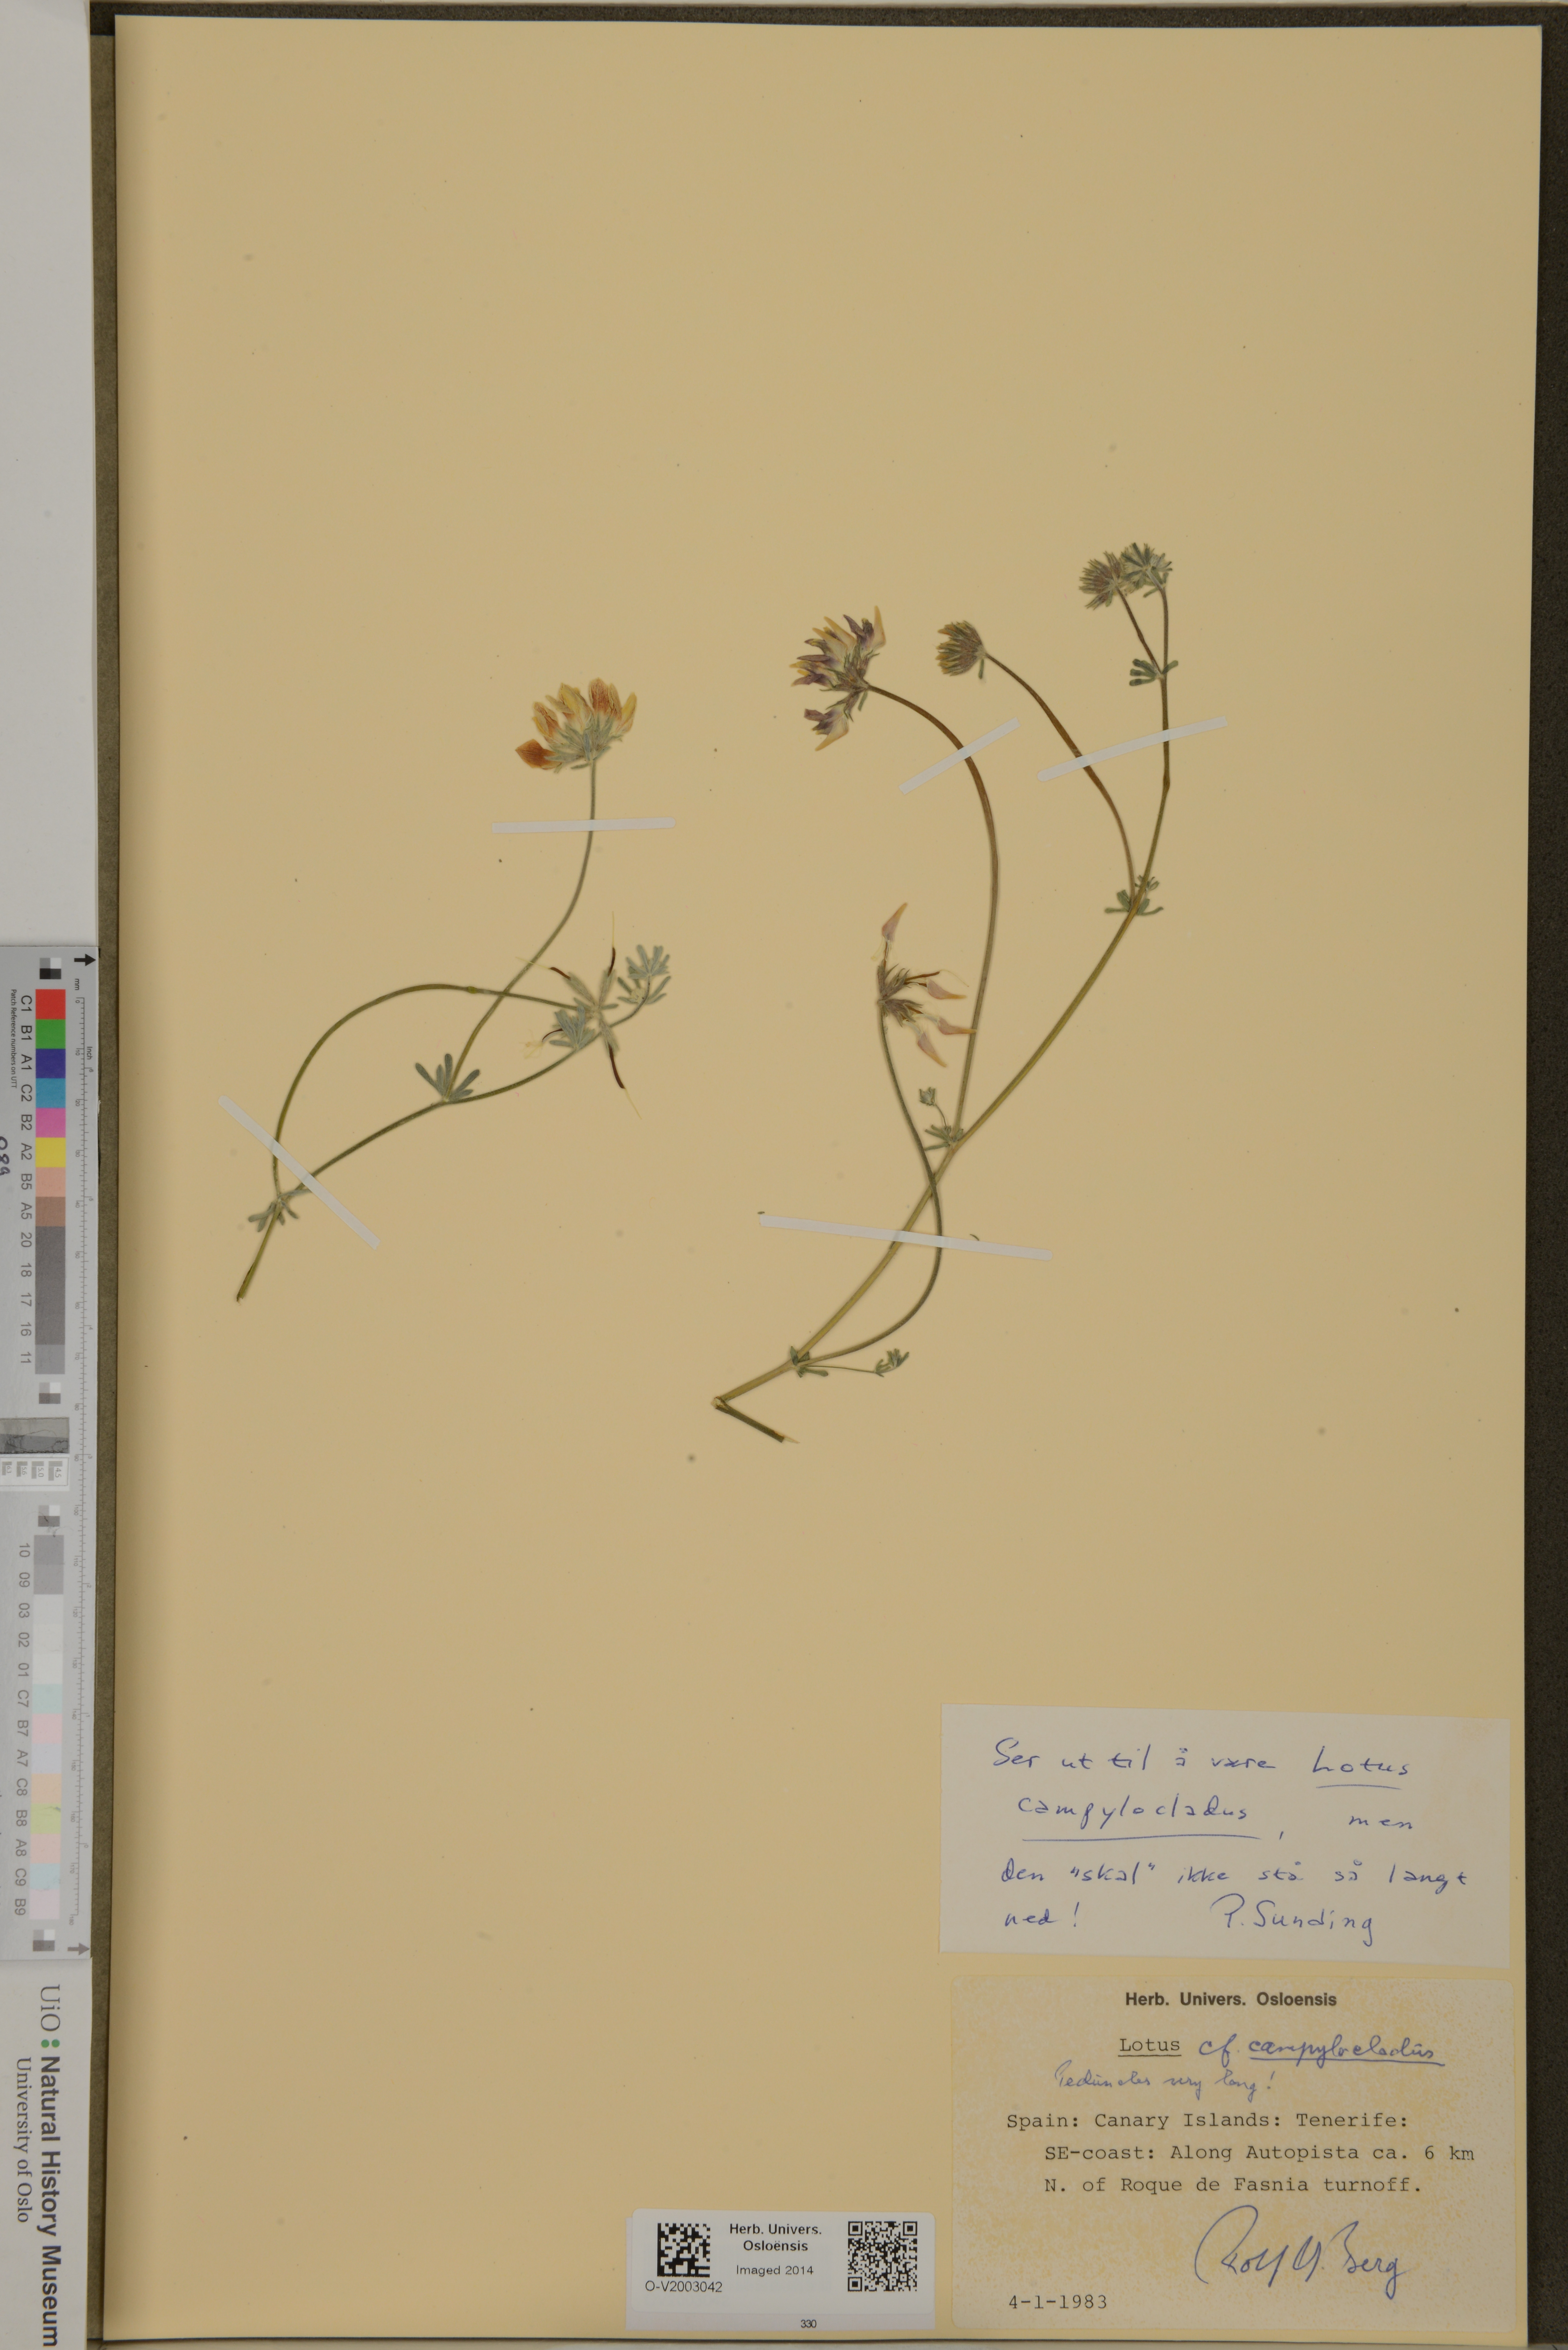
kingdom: Plantae
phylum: Tracheophyta
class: Magnoliopsida
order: Fabales
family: Fabaceae
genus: Lotus
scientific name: Lotus campylocladus
